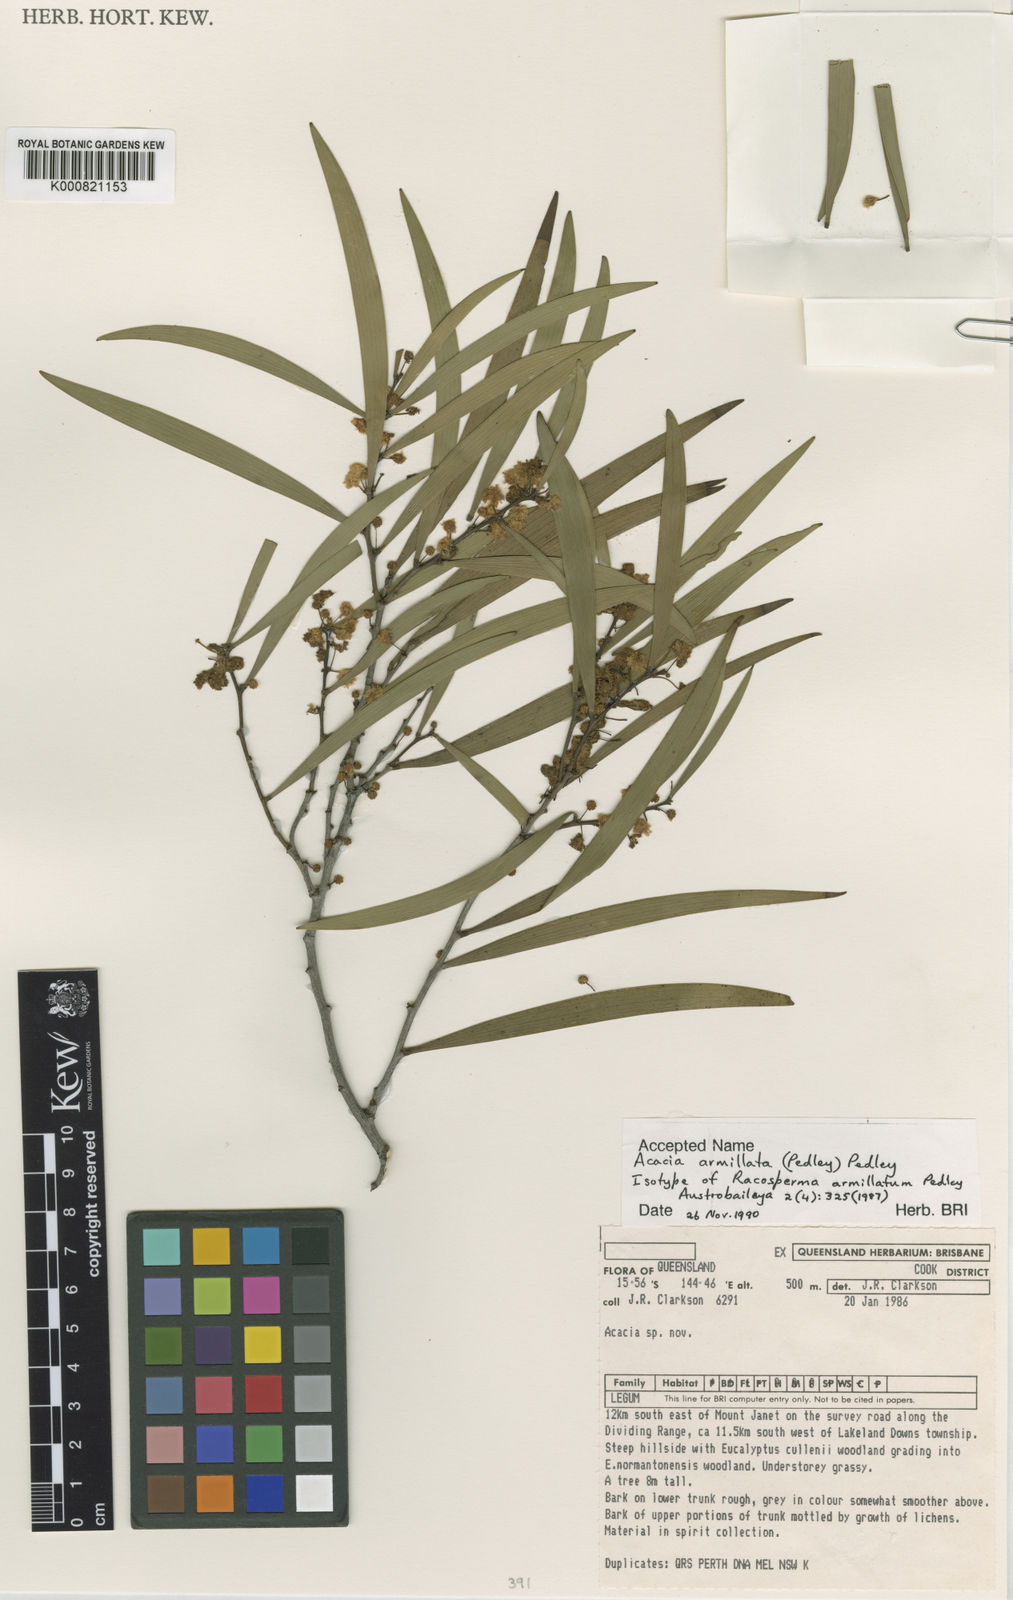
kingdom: Plantae
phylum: Tracheophyta
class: Magnoliopsida
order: Fabales
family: Fabaceae
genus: Acacia
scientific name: Acacia armillata
